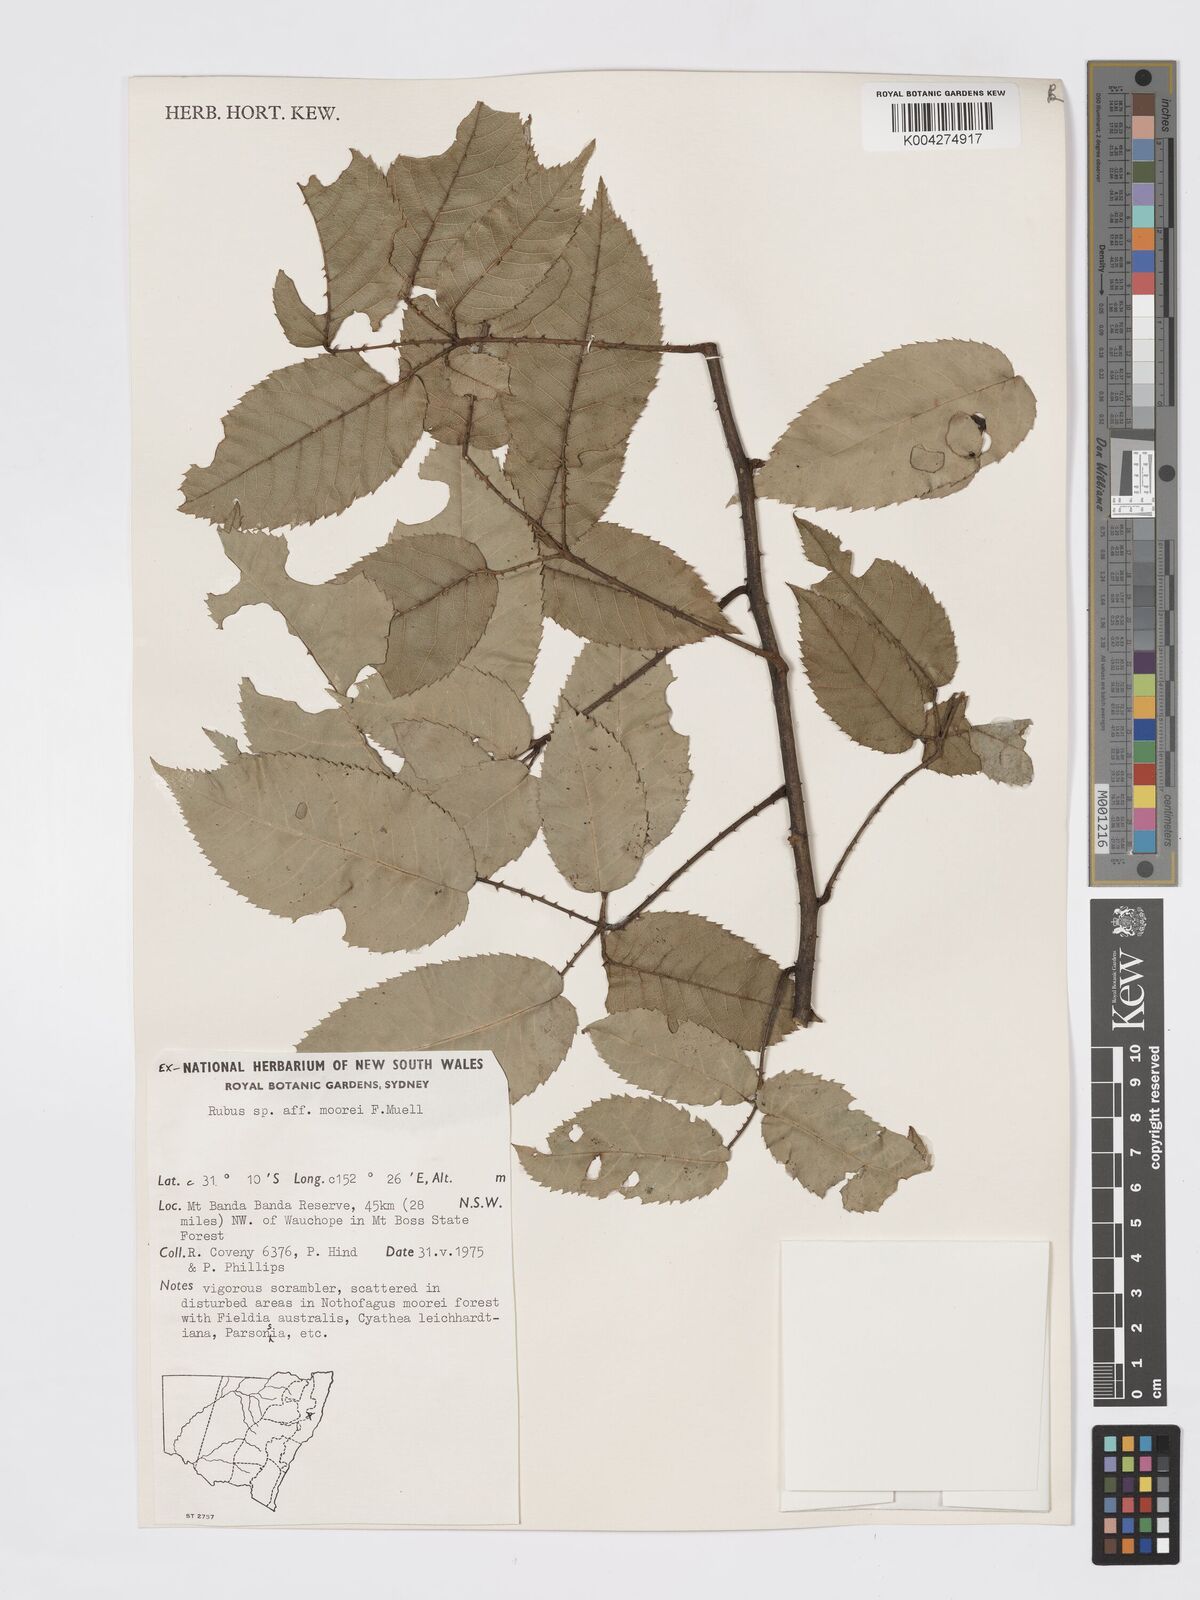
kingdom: Plantae
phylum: Tracheophyta
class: Magnoliopsida
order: Rosales
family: Rosaceae
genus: Rubus
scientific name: Rubus moorei
